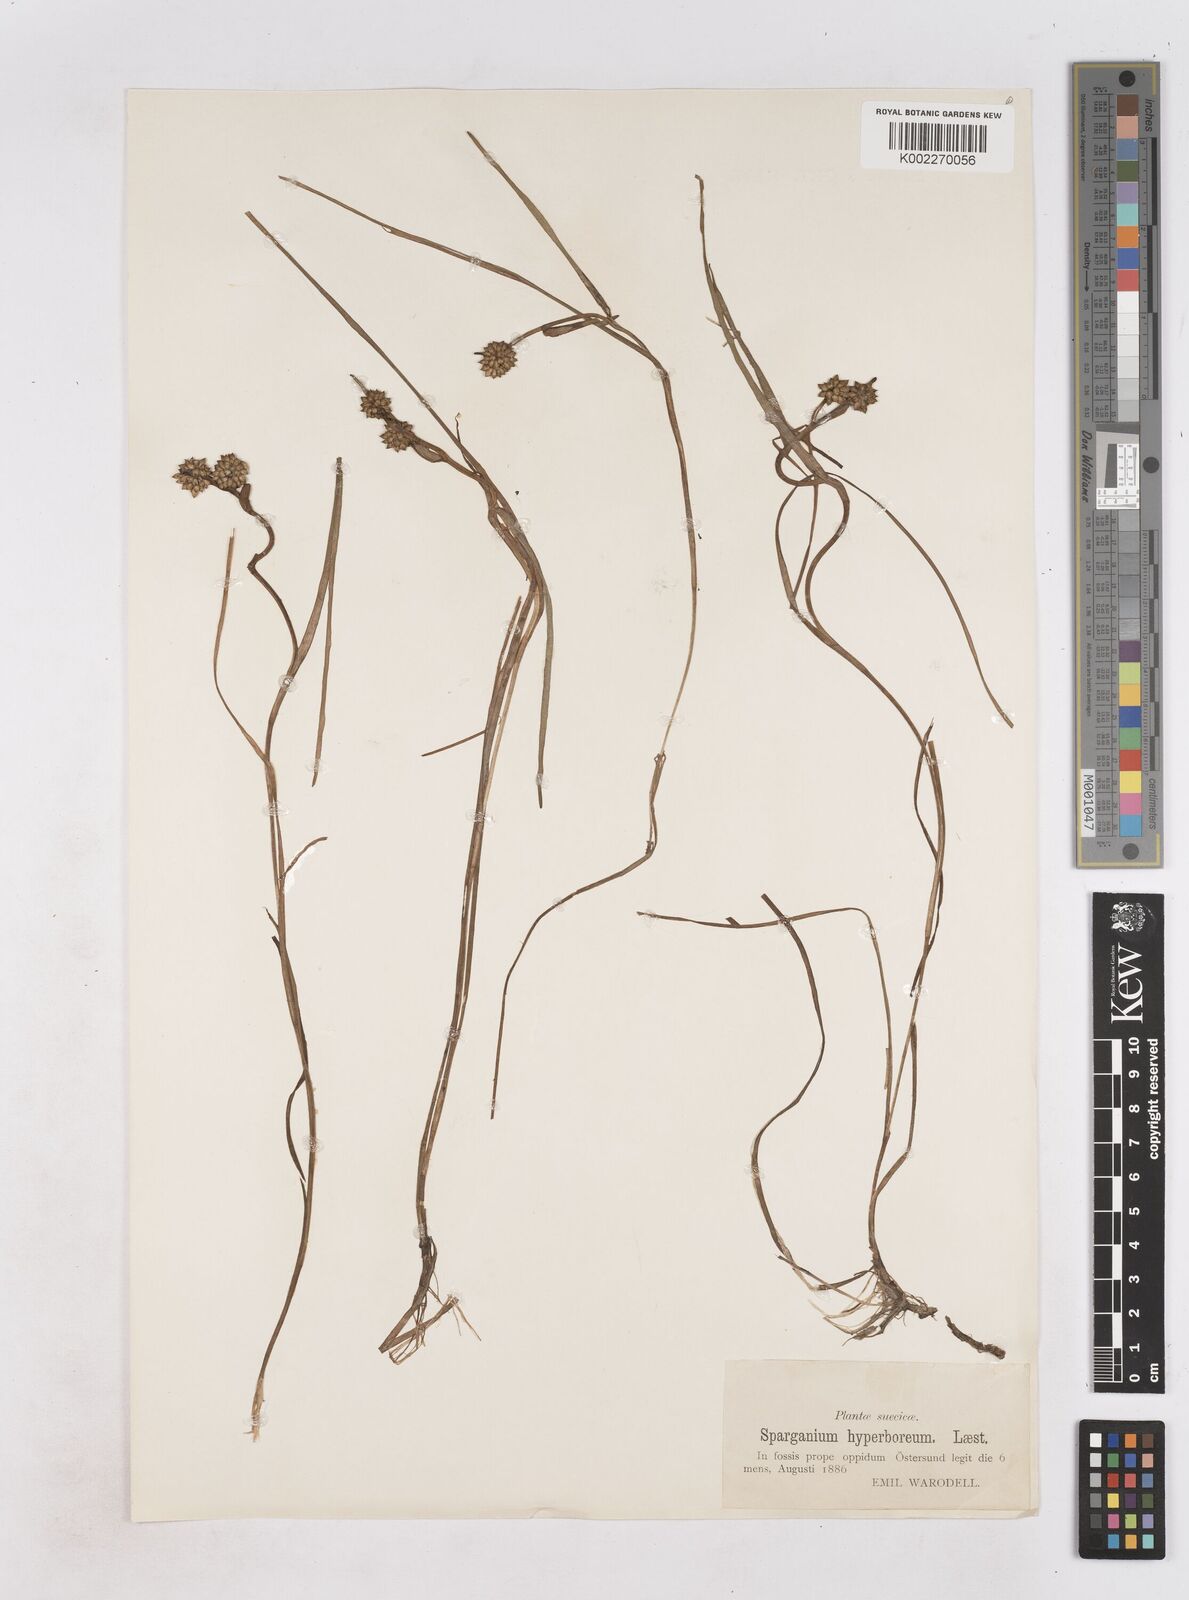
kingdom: Plantae
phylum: Tracheophyta
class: Liliopsida
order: Poales
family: Typhaceae
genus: Sparganium
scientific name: Sparganium hyperboreum
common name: Arctic burreed
